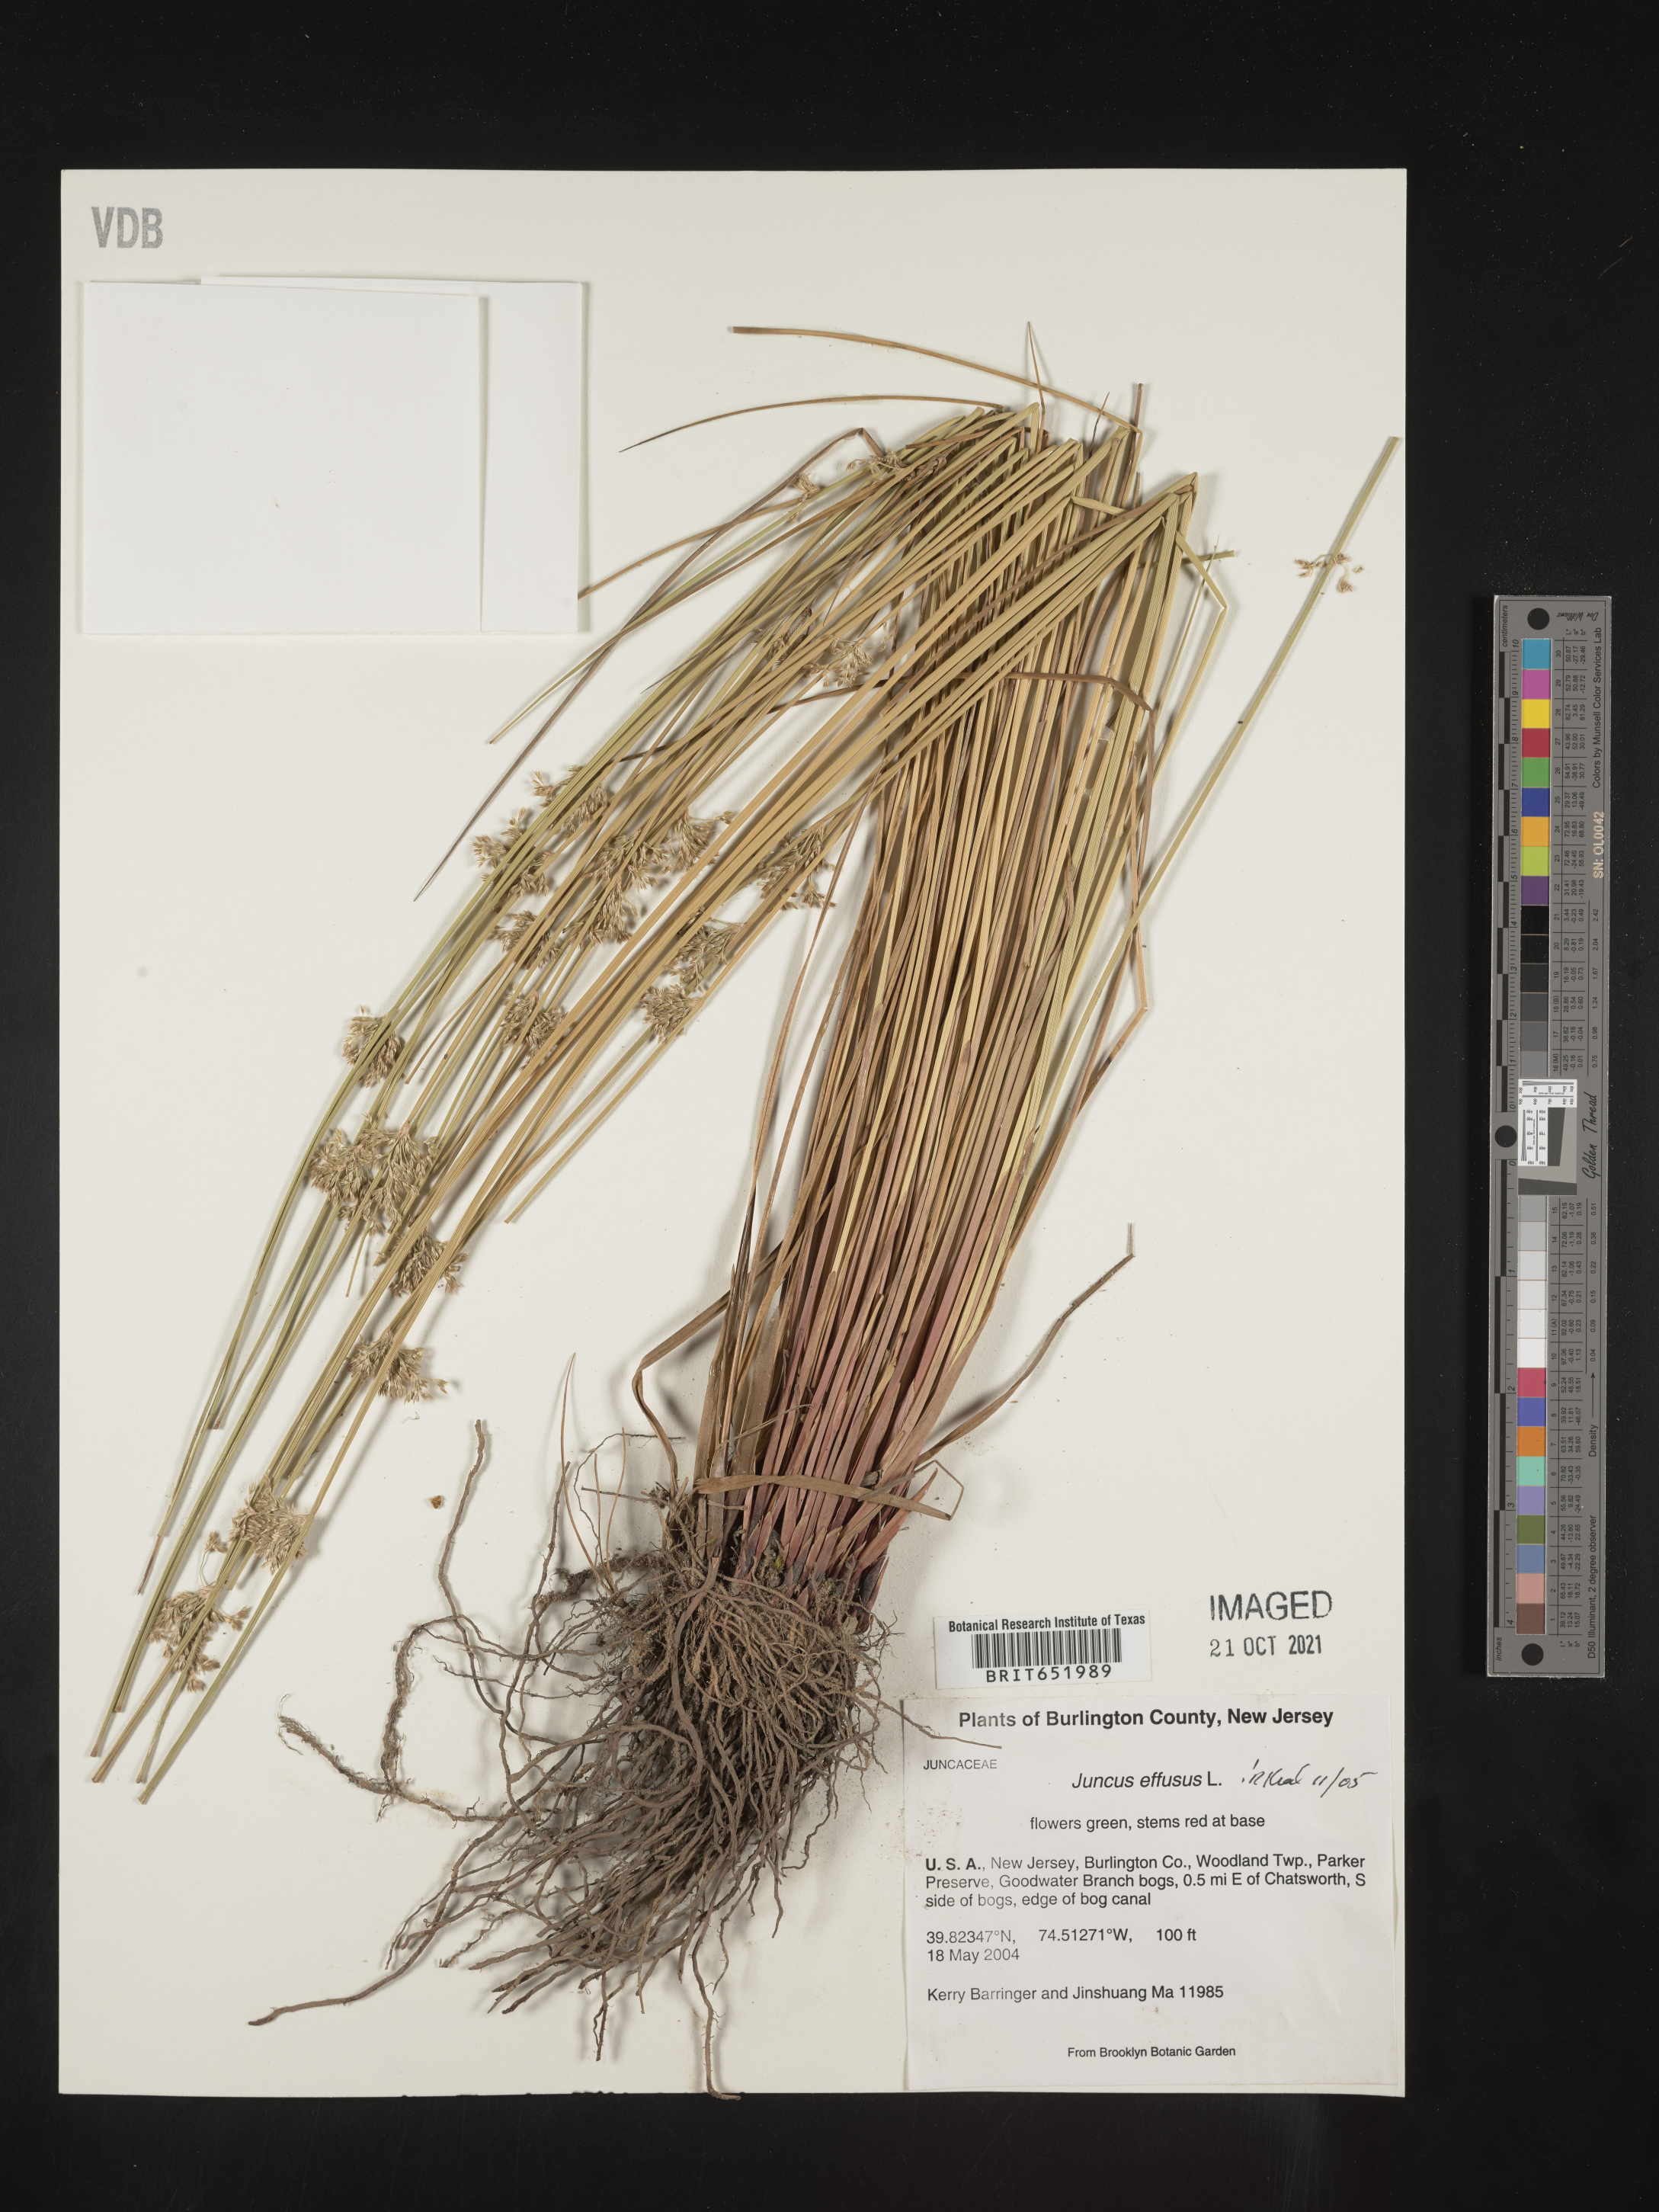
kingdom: Plantae
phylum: Tracheophyta
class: Liliopsida
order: Poales
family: Juncaceae
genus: Juncus
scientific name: Juncus effusus
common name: Soft rush
